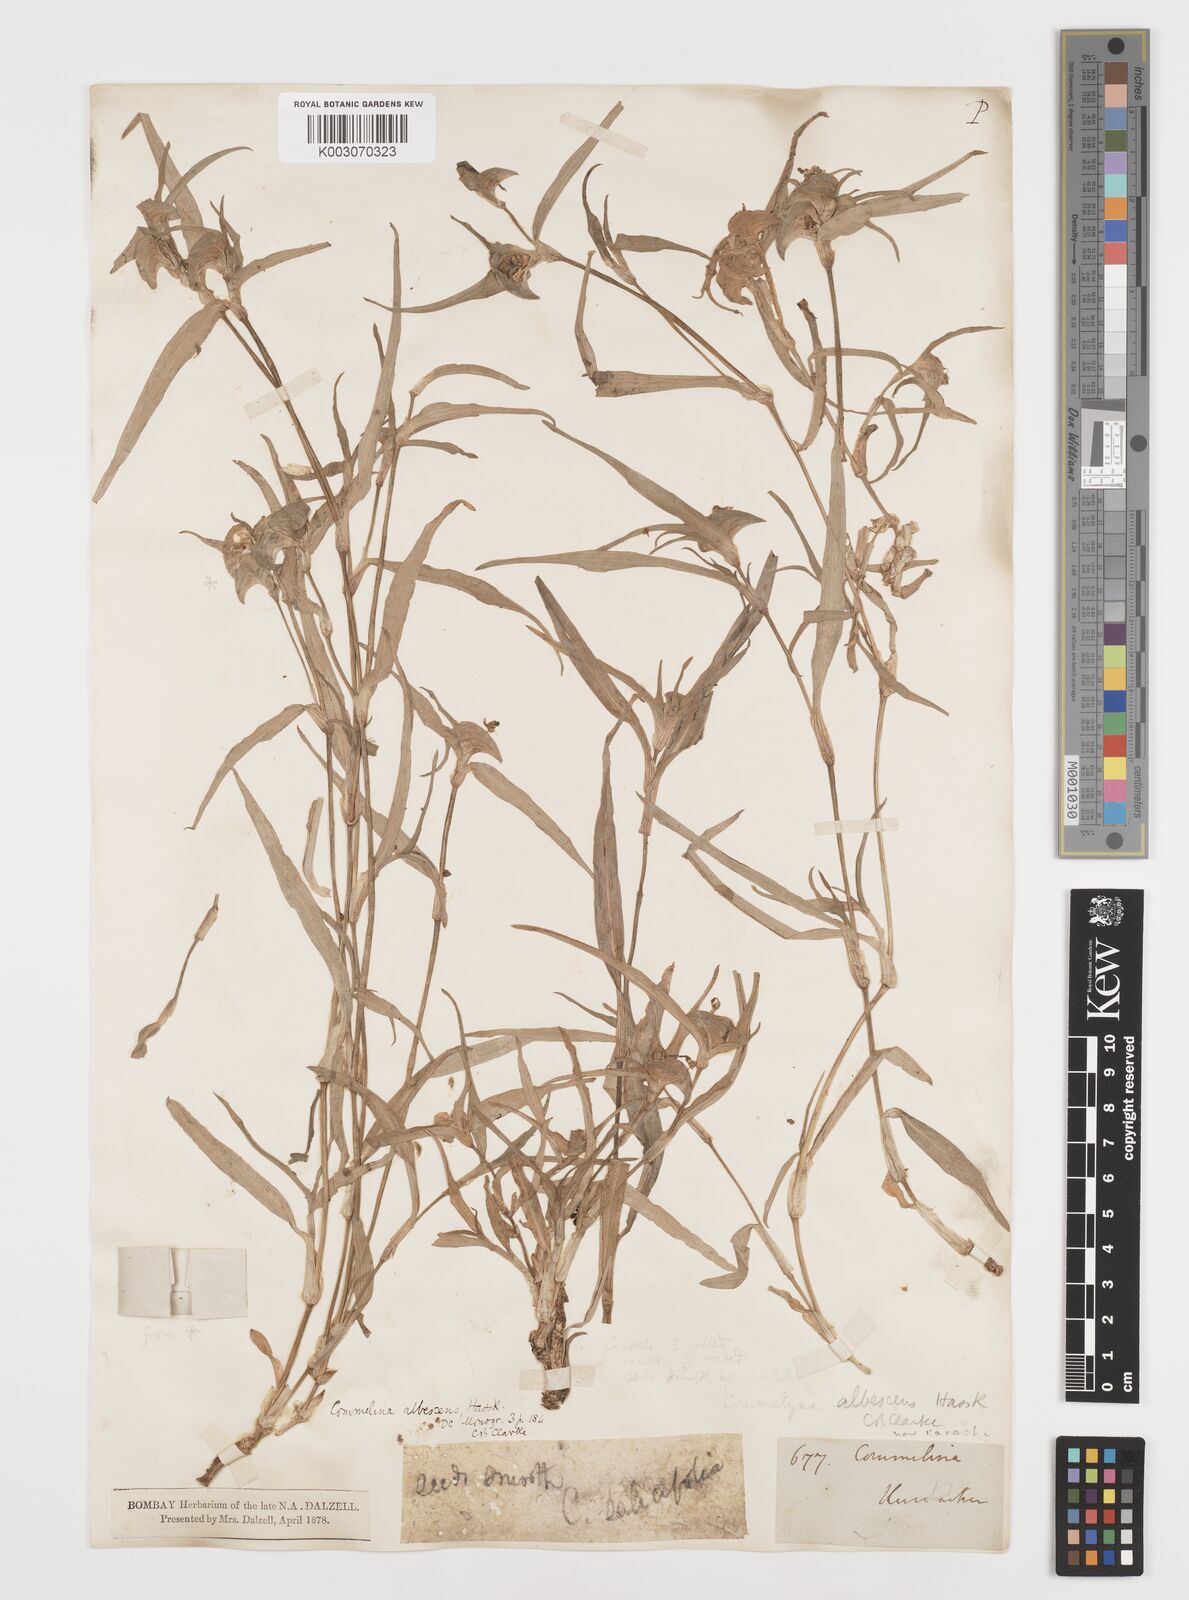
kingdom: Plantae
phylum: Tracheophyta
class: Liliopsida
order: Commelinales
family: Commelinaceae
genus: Commelina
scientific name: Commelina albescens
